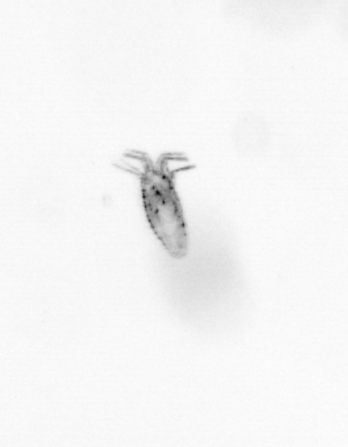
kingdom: Animalia
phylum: Arthropoda
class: Copepoda
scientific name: Copepoda
